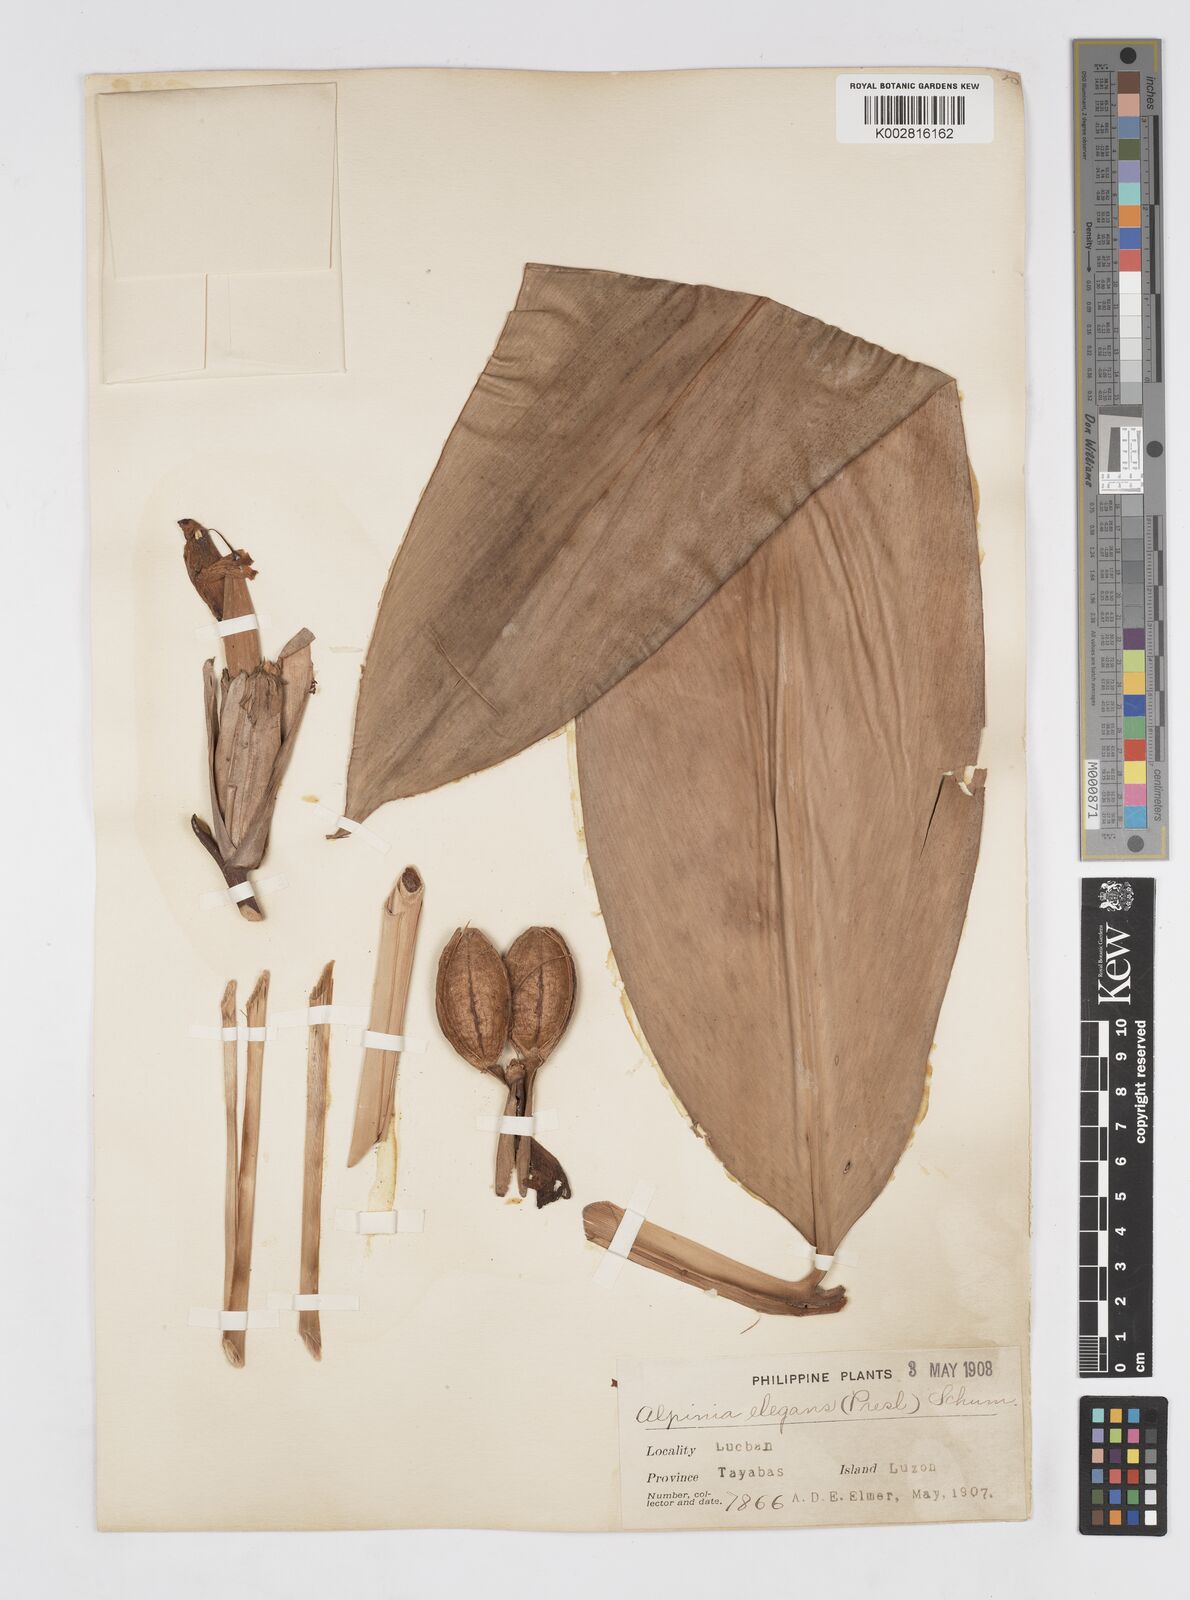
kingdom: Plantae
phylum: Tracheophyta
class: Liliopsida
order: Zingiberales
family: Zingiberaceae
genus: Alpinia
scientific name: Alpinia elegans
